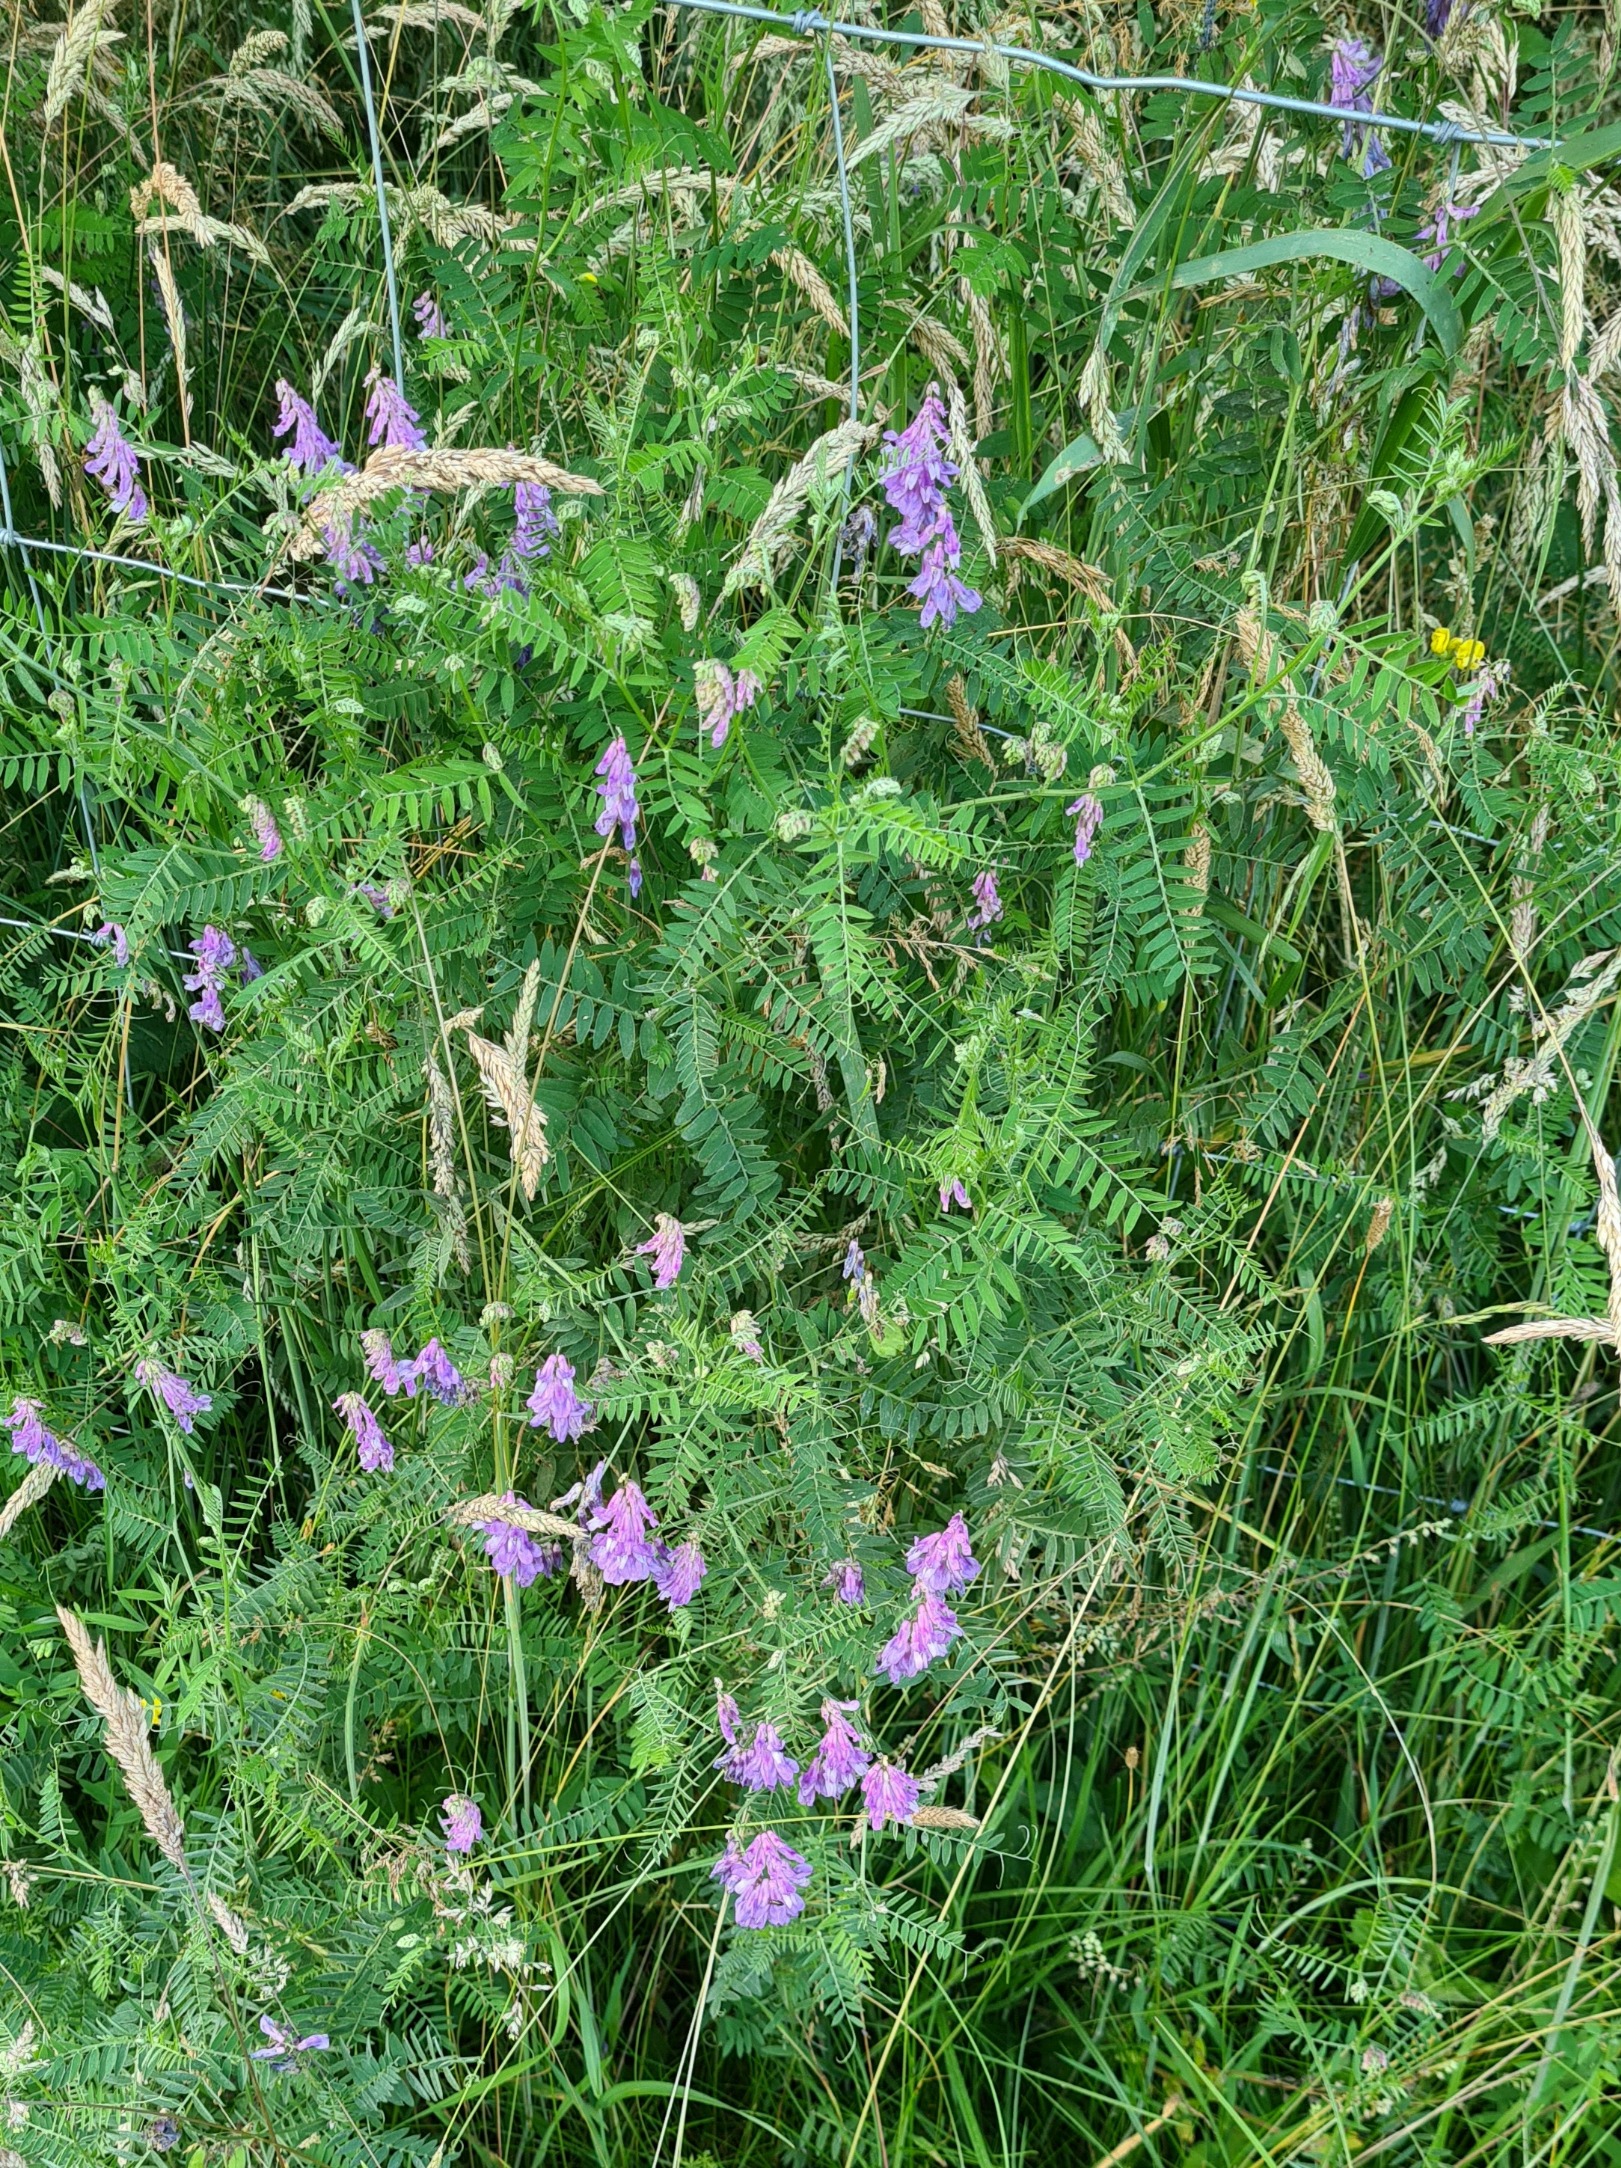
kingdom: Plantae
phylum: Tracheophyta
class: Magnoliopsida
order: Fabales
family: Fabaceae
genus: Vicia
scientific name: Vicia cracca
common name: Muse-vikke
